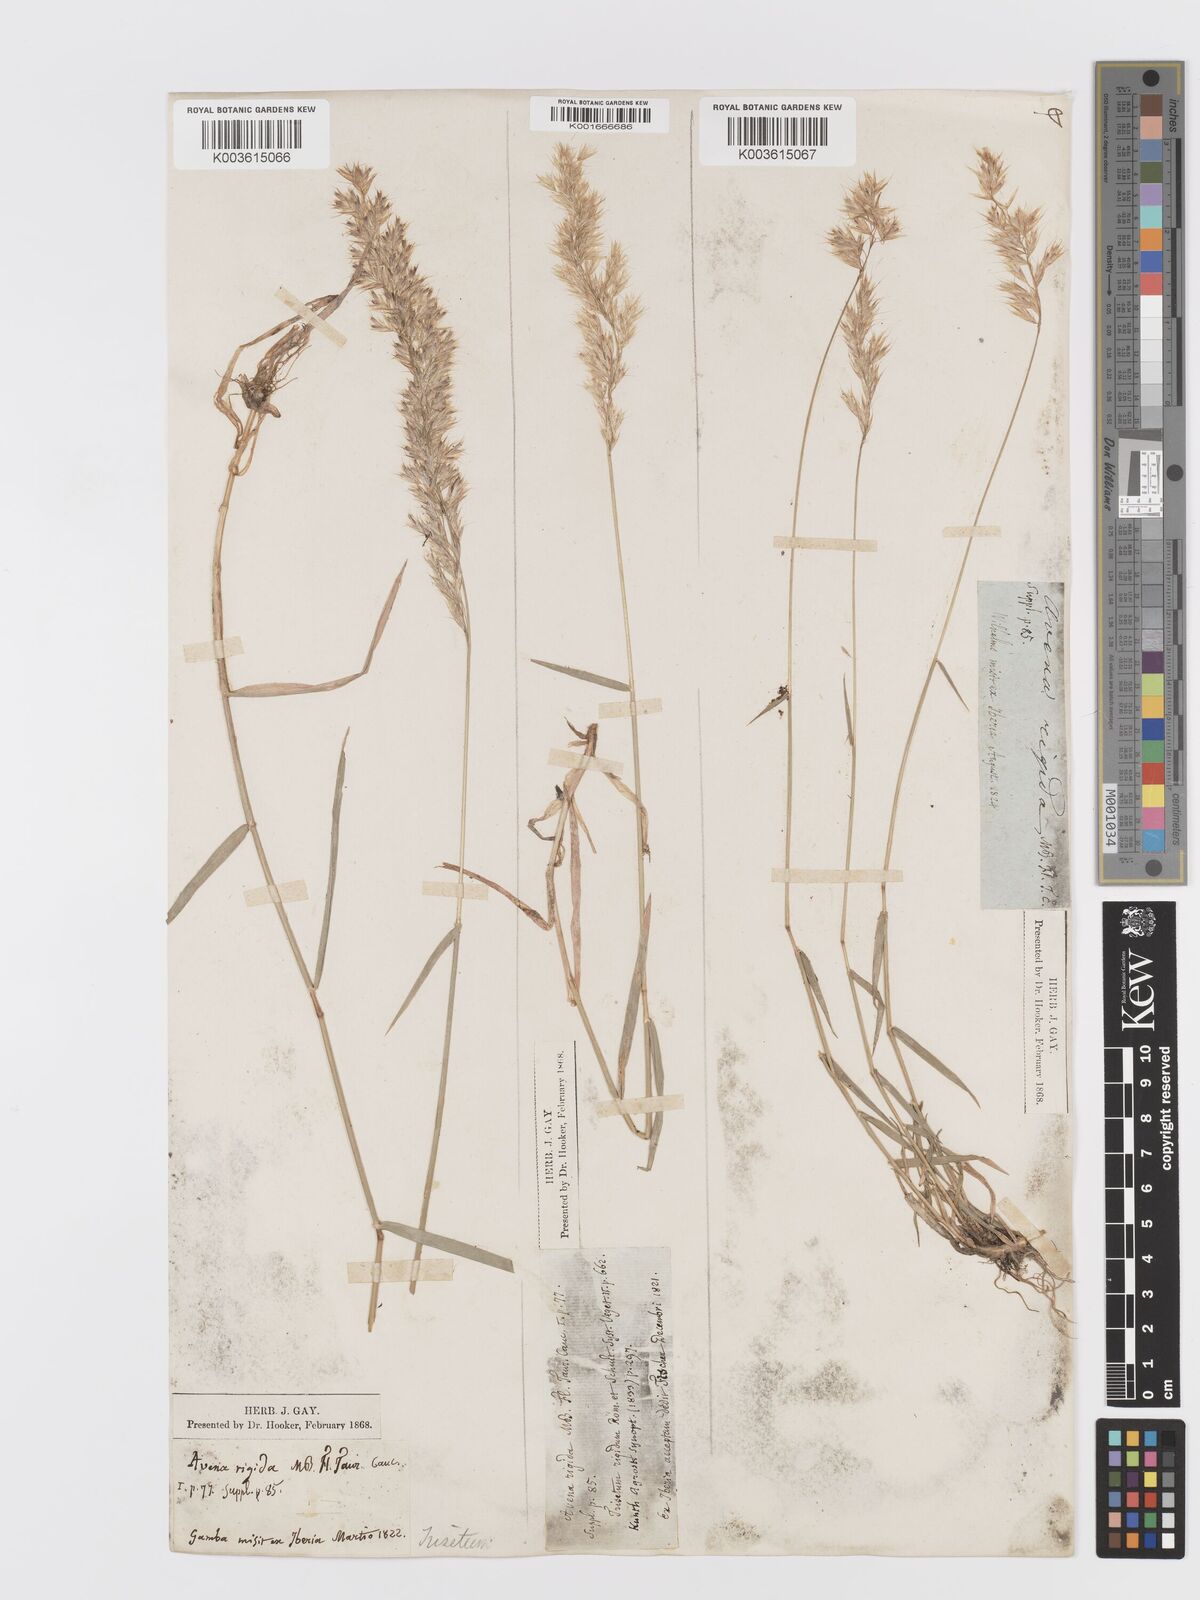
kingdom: Plantae
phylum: Tracheophyta
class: Liliopsida
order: Poales
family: Poaceae
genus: Trisetum
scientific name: Trisetum rigidum
